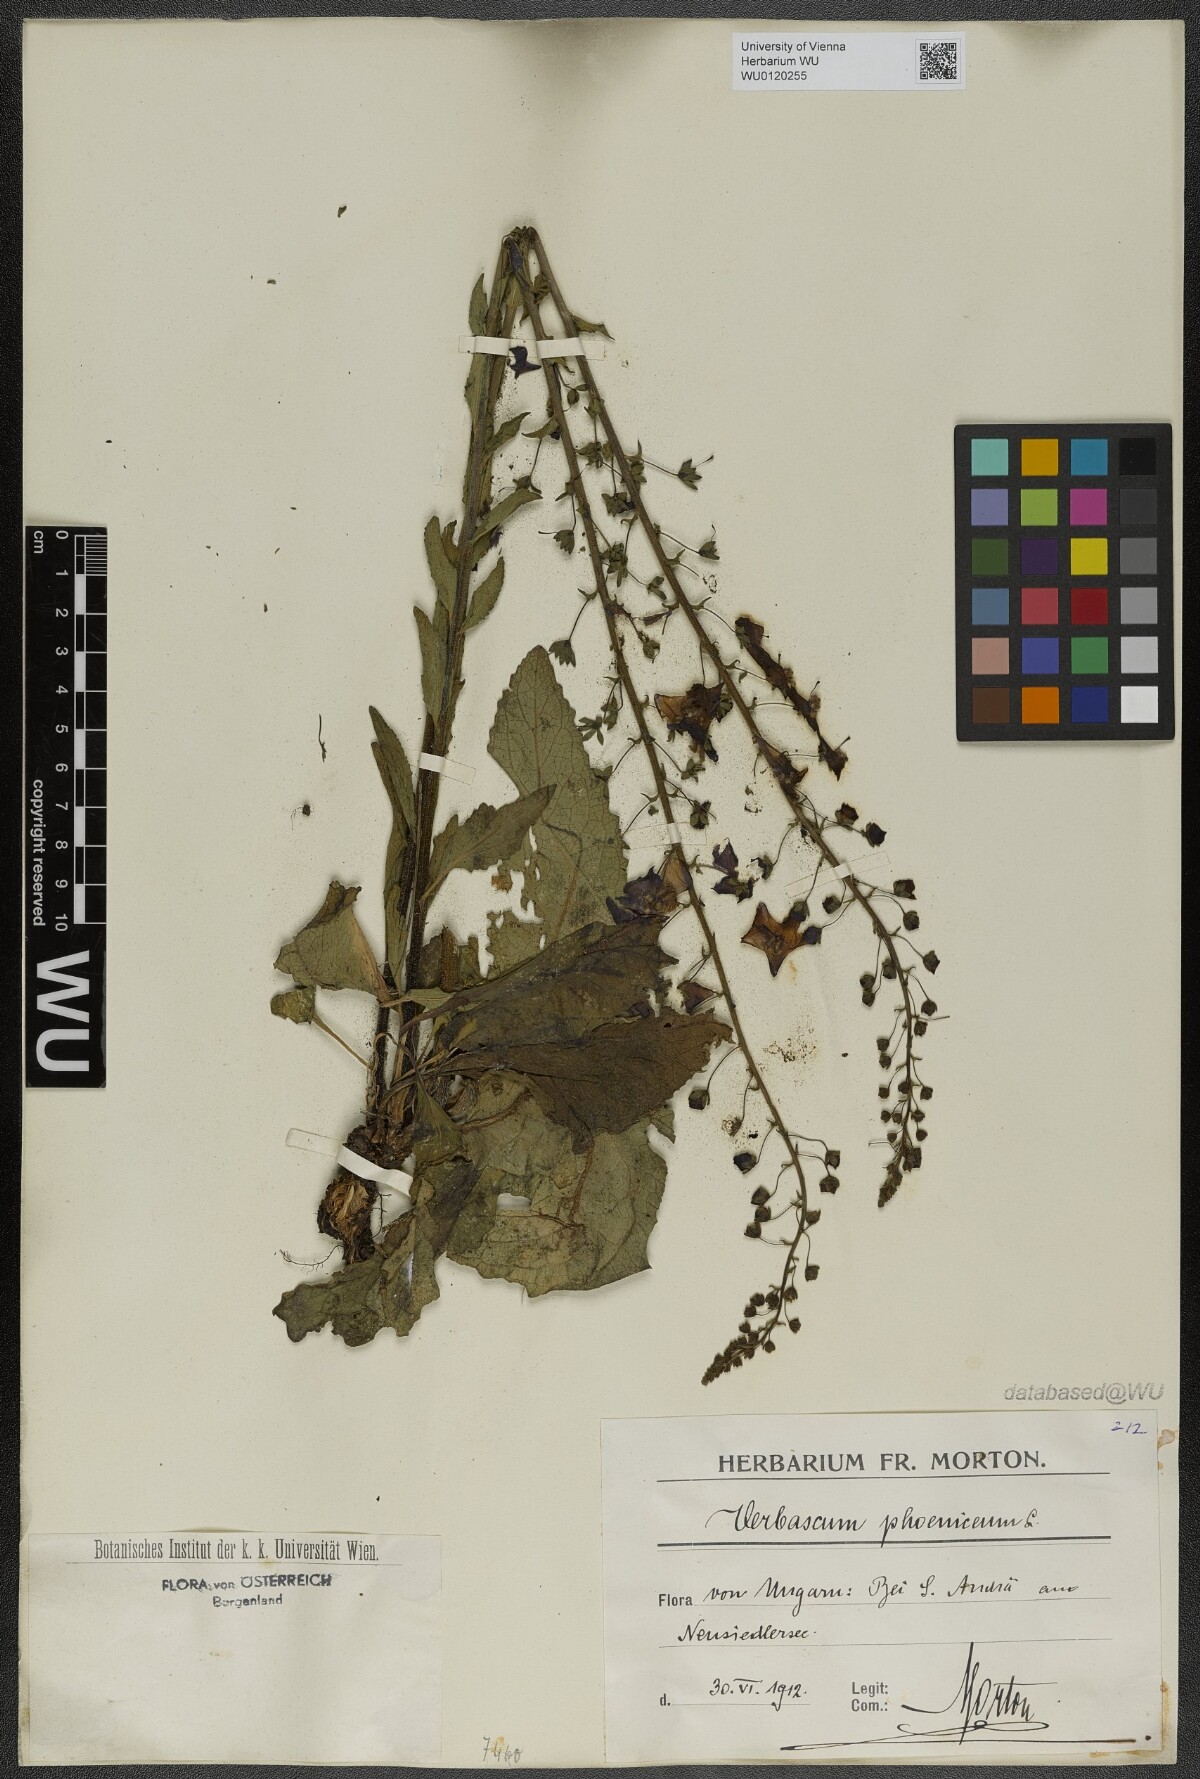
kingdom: Plantae
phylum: Tracheophyta
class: Magnoliopsida
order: Lamiales
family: Scrophulariaceae
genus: Verbascum
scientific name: Verbascum phoeniceum
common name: Purple mullein
